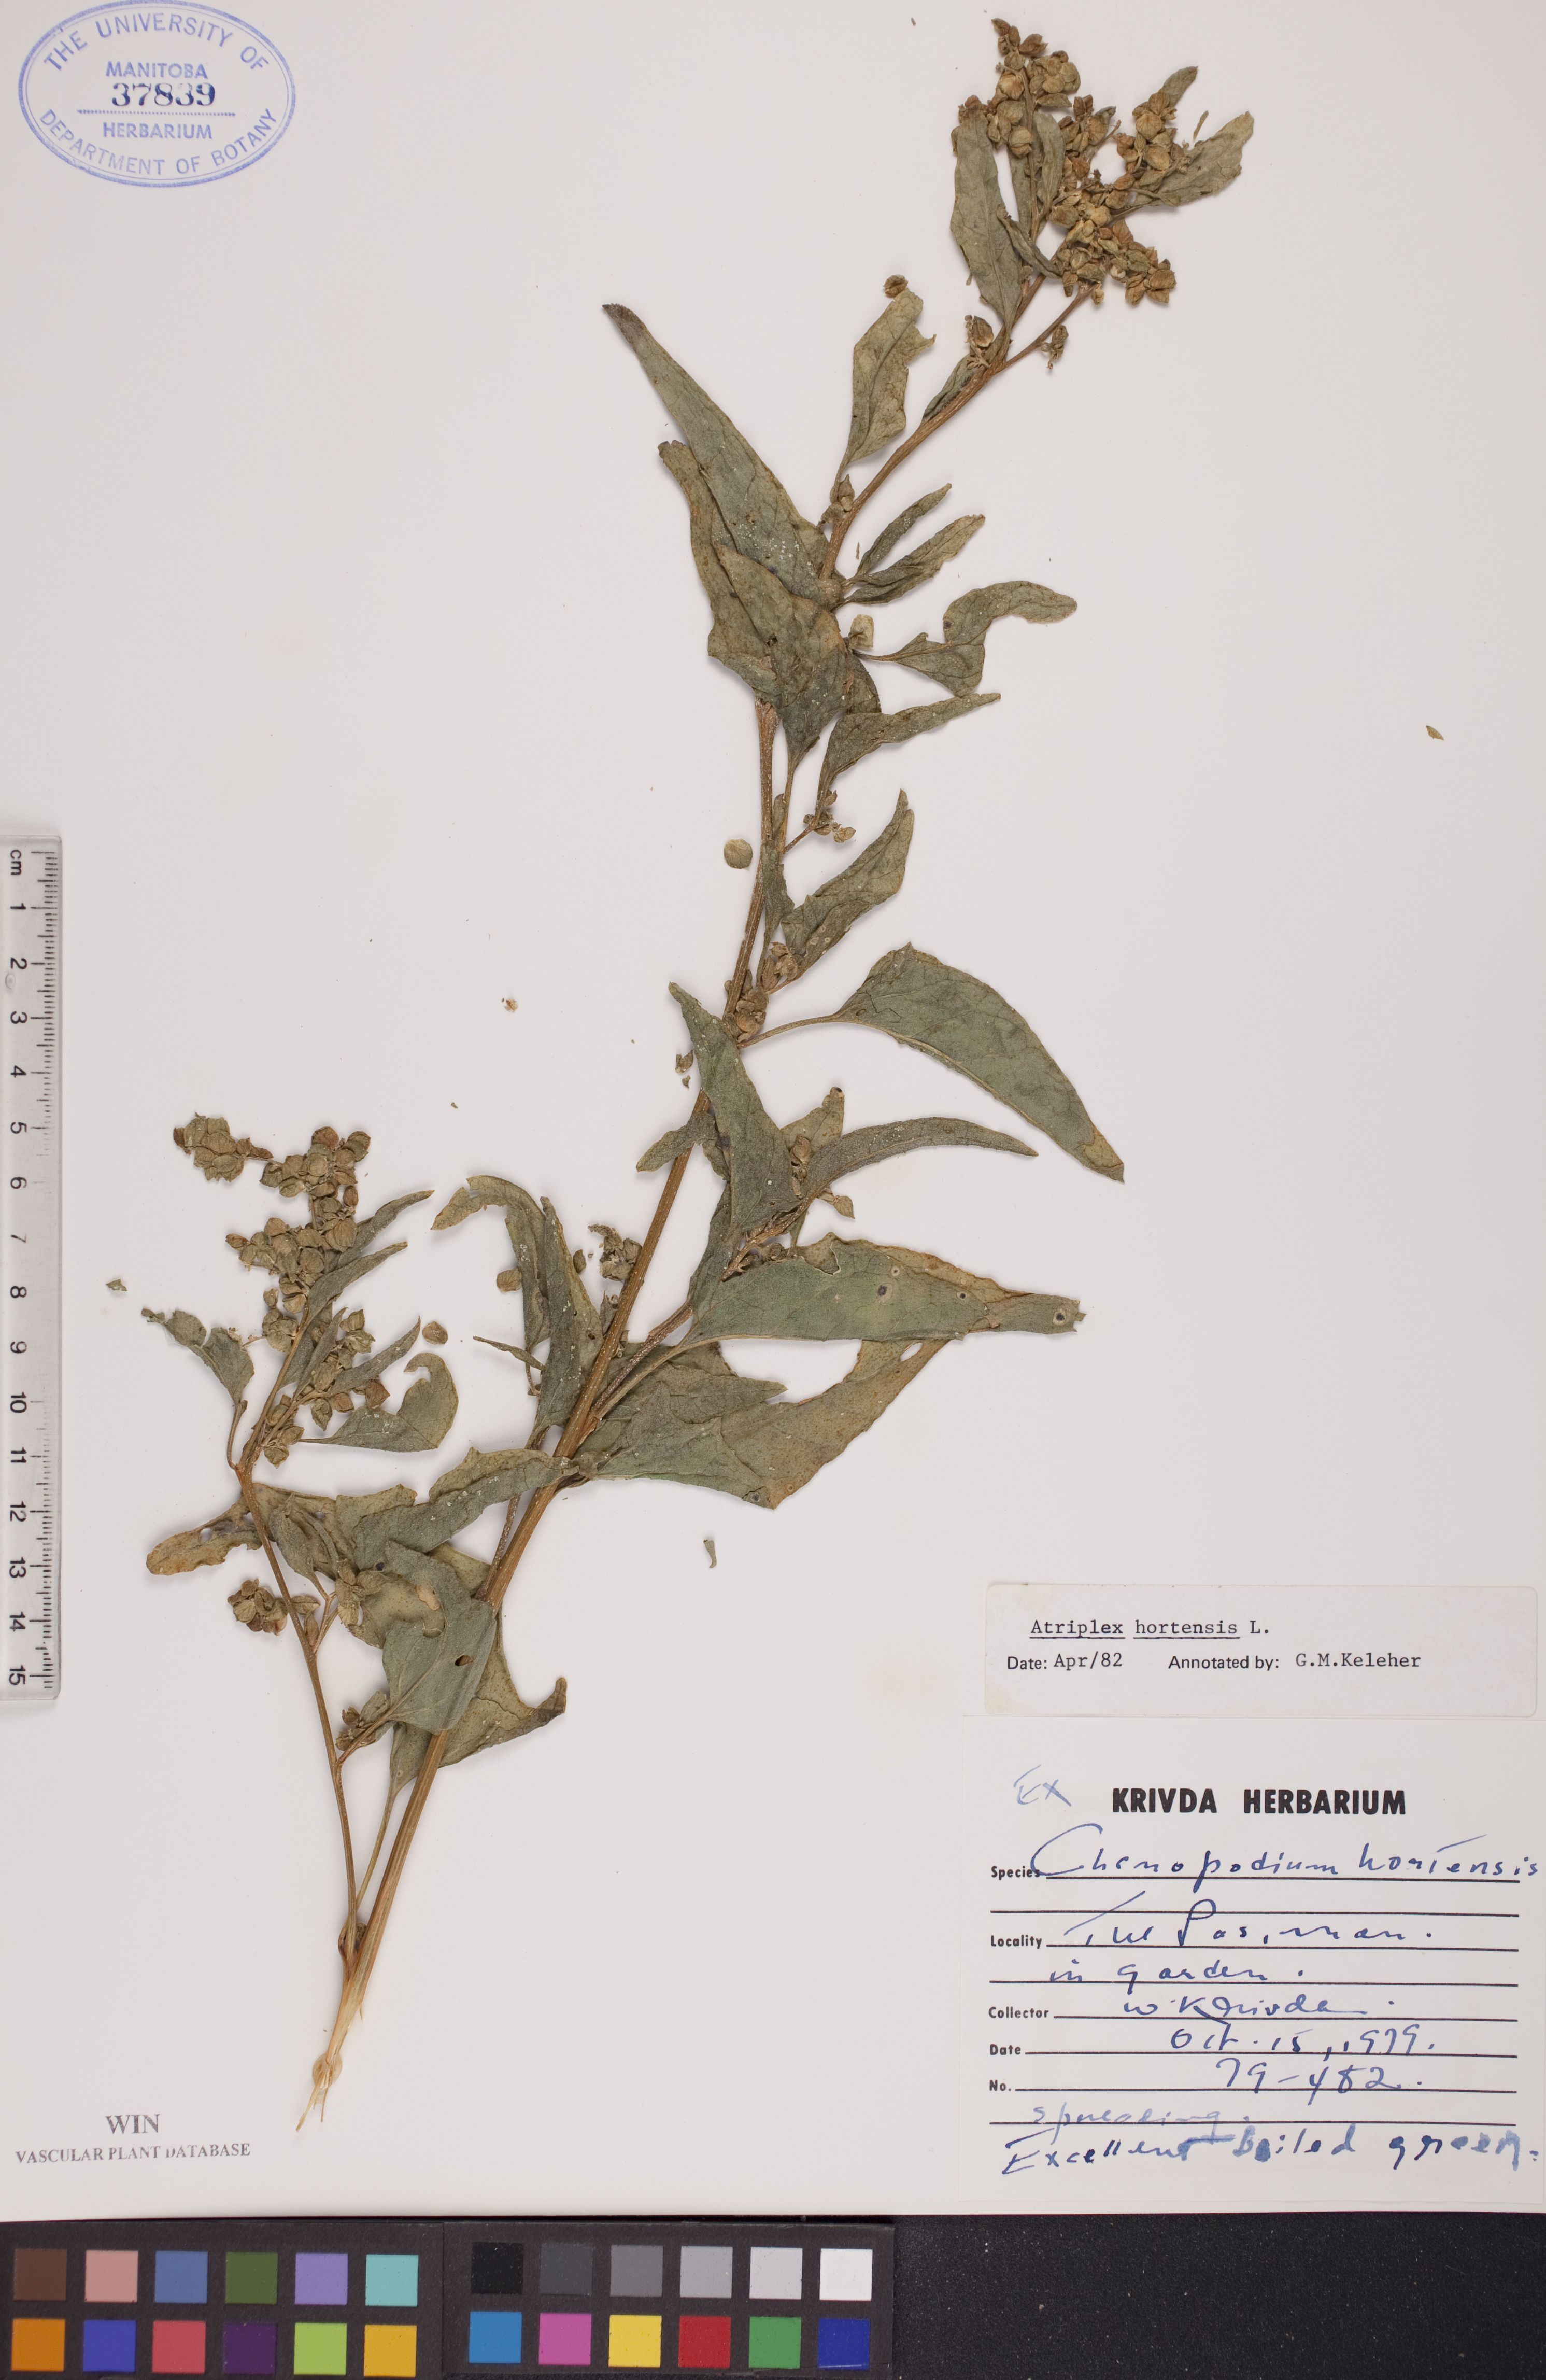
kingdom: Plantae
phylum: Tracheophyta
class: Magnoliopsida
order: Caryophyllales
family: Amaranthaceae
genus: Atriplex
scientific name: Atriplex hortensis
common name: Garden orache
